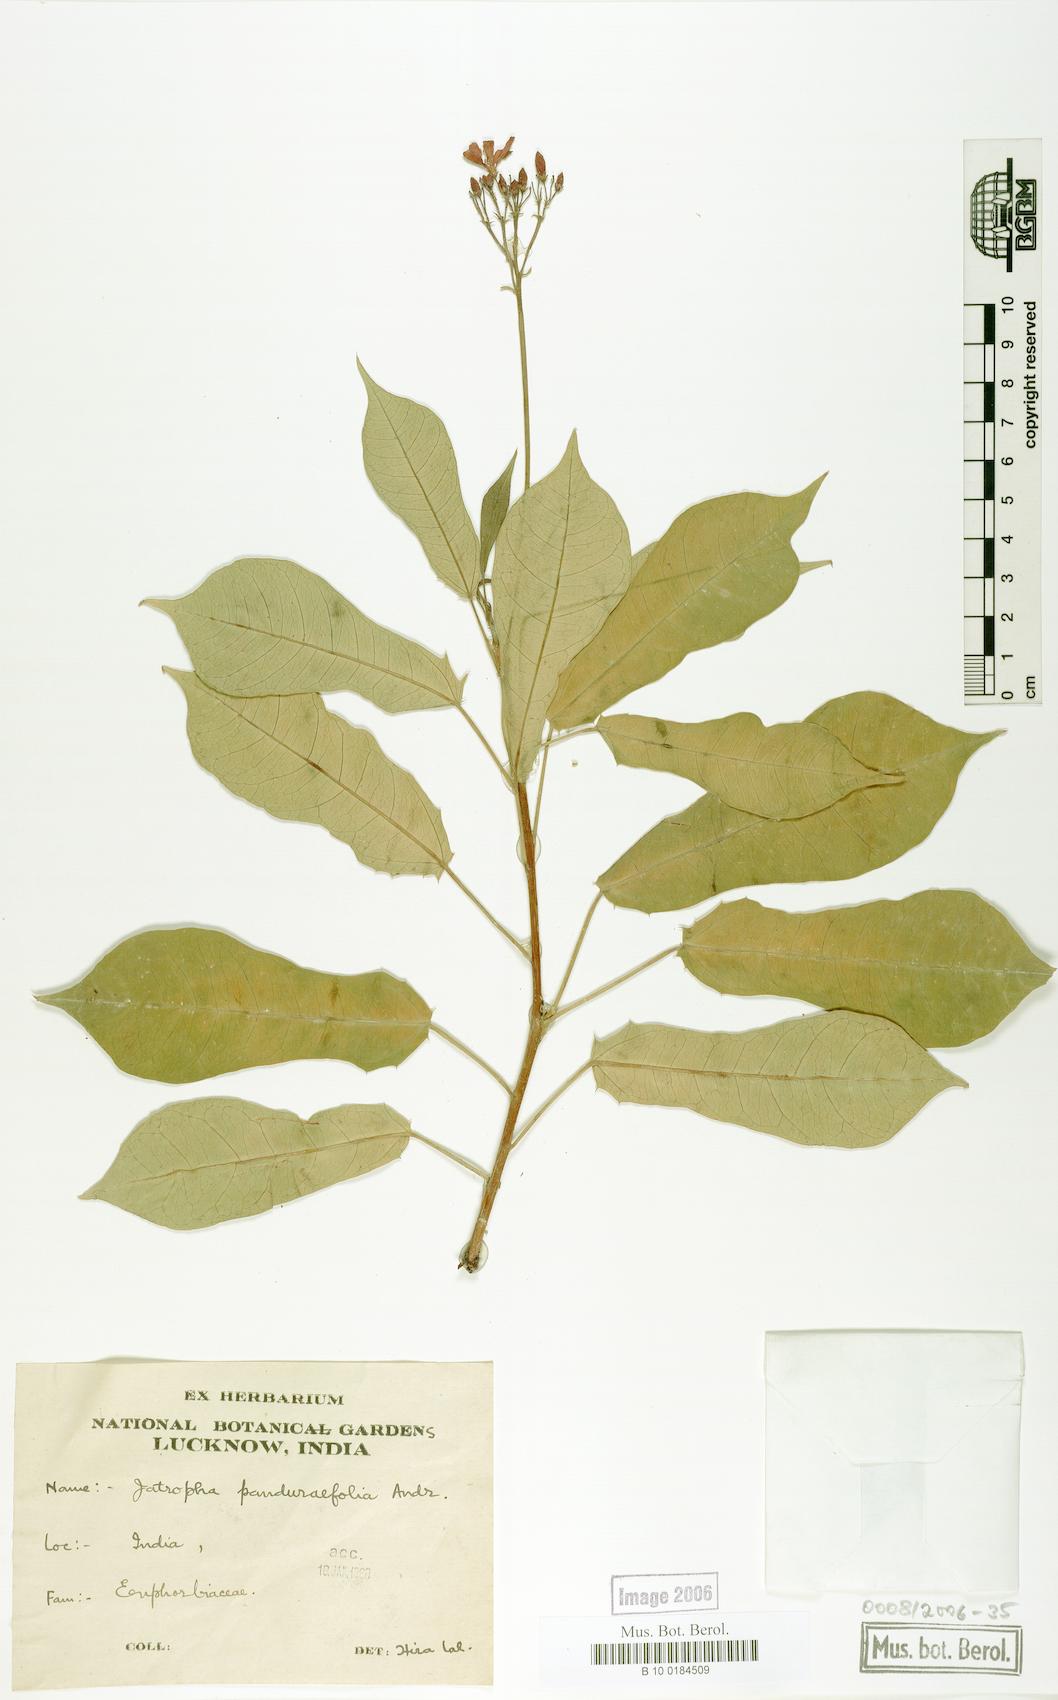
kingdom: Plantae
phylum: Tracheophyta
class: Magnoliopsida
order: Malpighiales
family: Euphorbiaceae
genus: Jatropha
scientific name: Jatropha integerrima
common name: Peregrina
